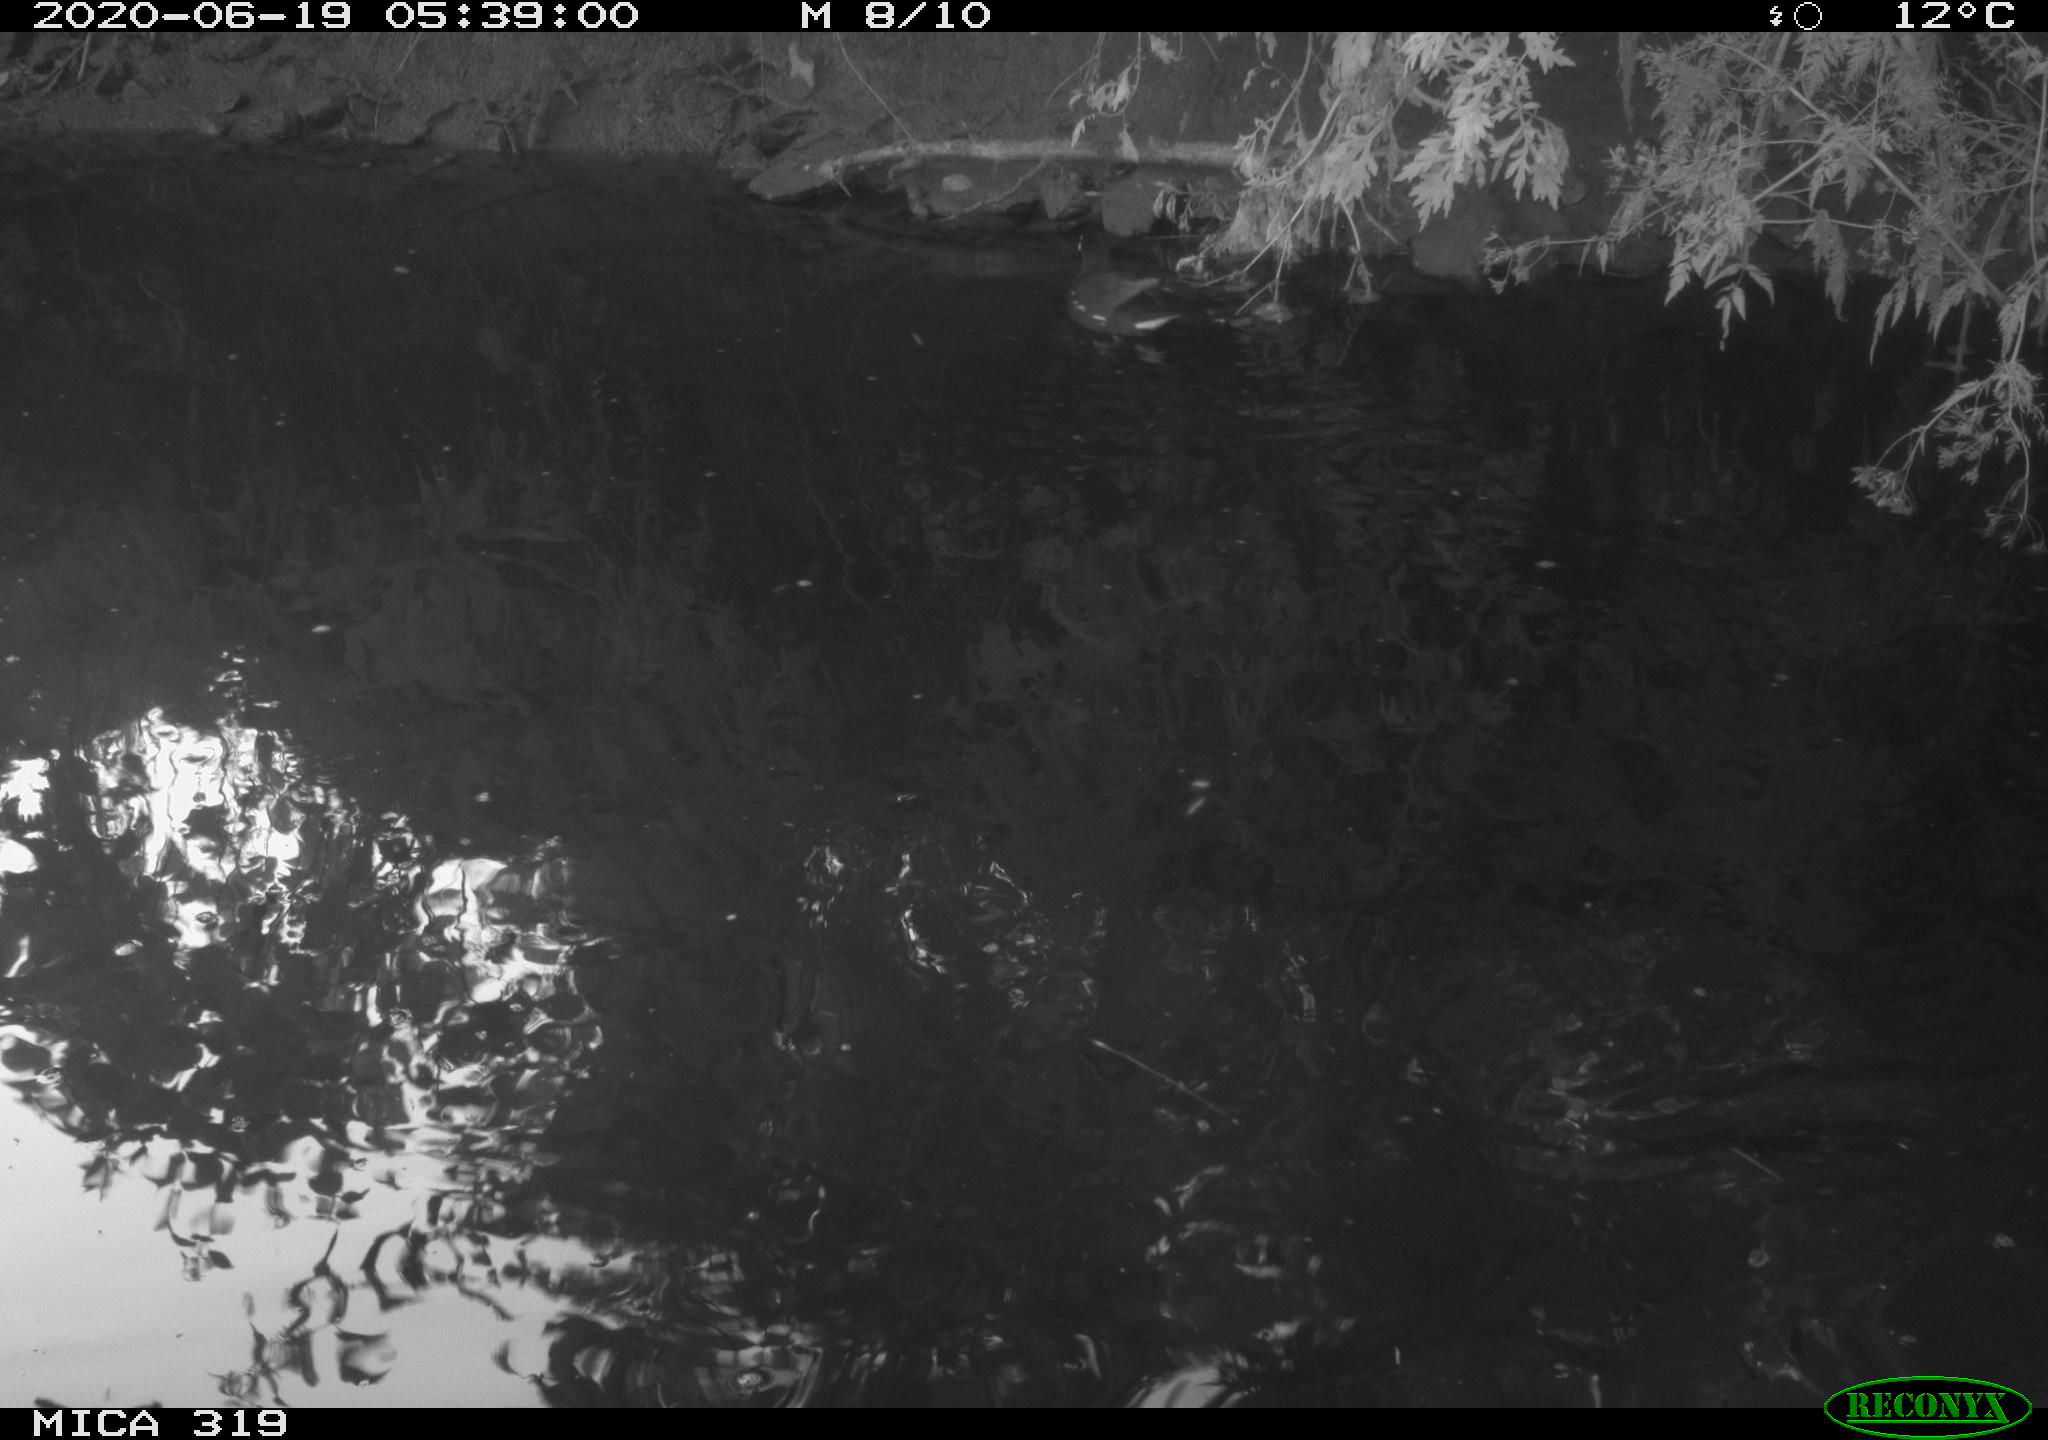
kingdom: Animalia
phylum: Chordata
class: Aves
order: Gruiformes
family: Rallidae
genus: Gallinula
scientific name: Gallinula chloropus
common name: Common moorhen
